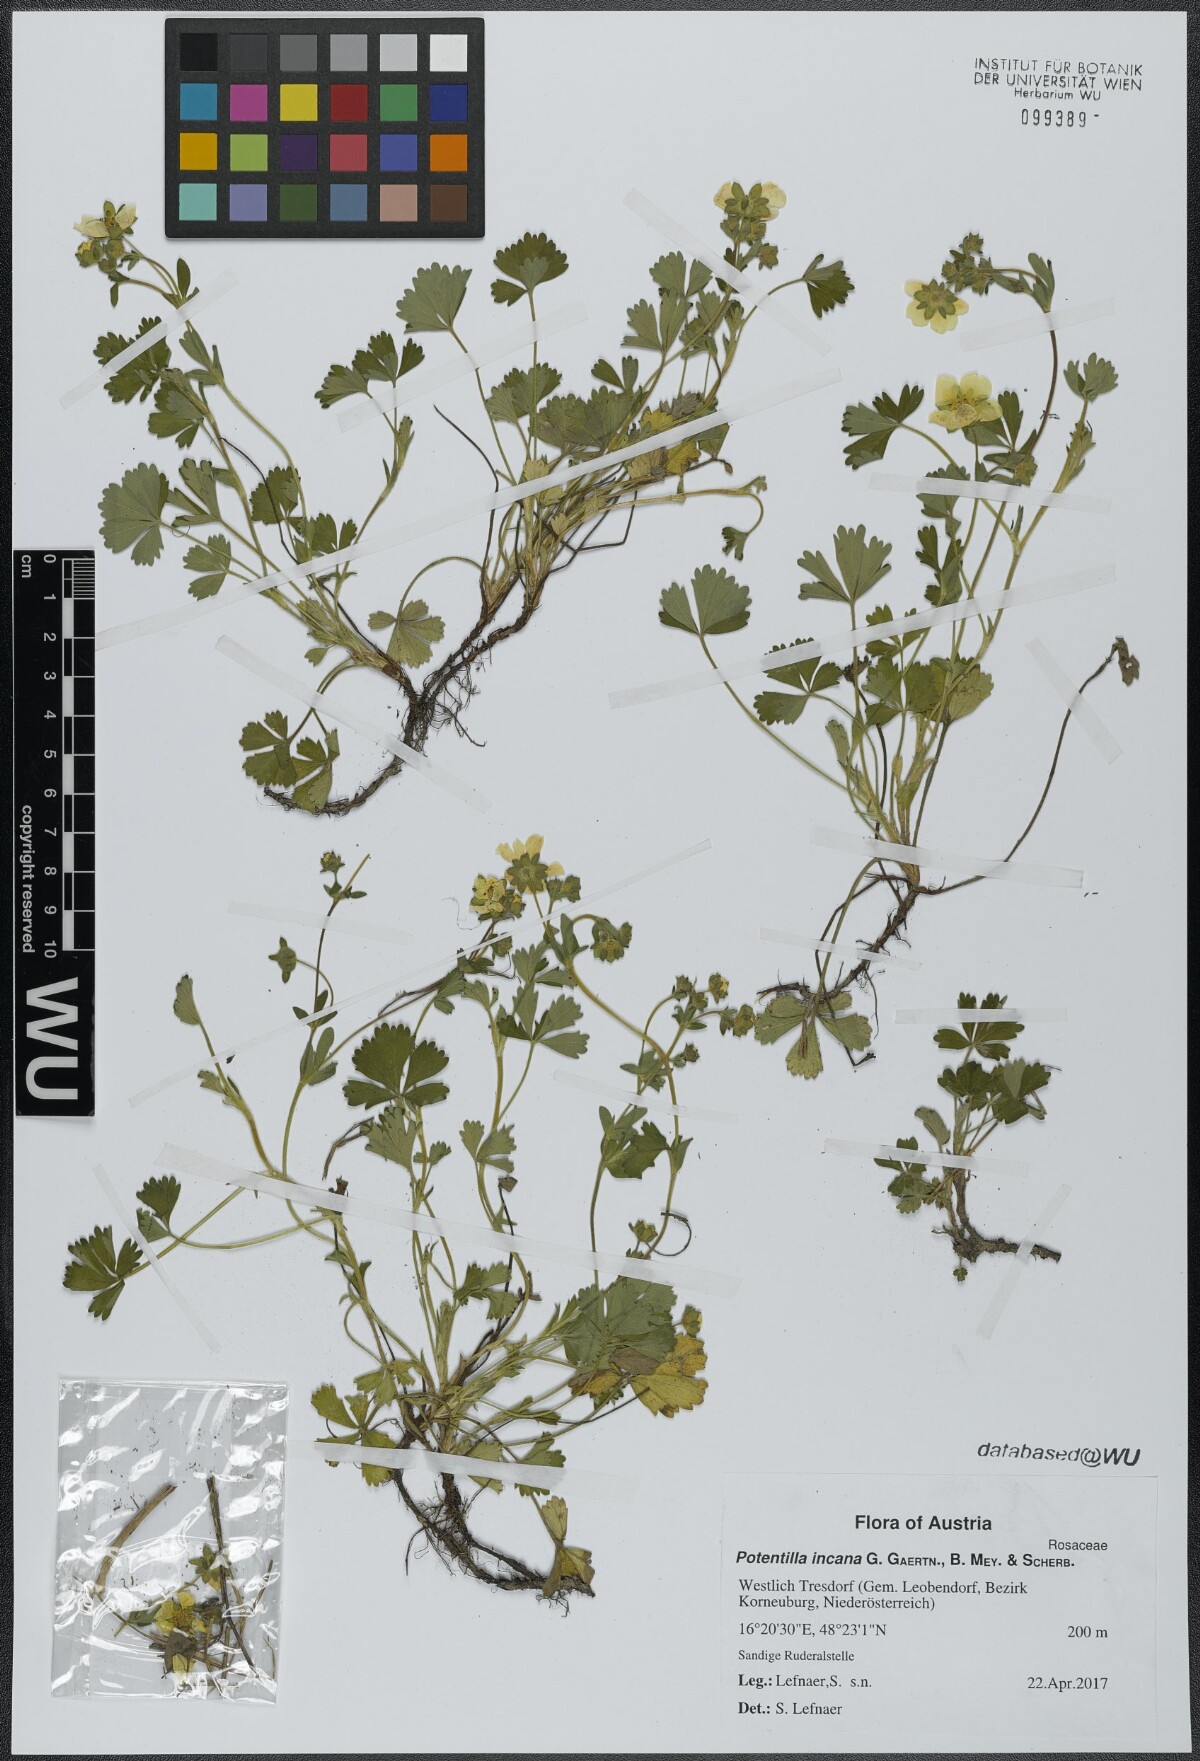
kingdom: Plantae
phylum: Tracheophyta
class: Magnoliopsida
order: Rosales
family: Rosaceae
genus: Potentilla
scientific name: Potentilla cinerea
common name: Ashy cinquefoil
